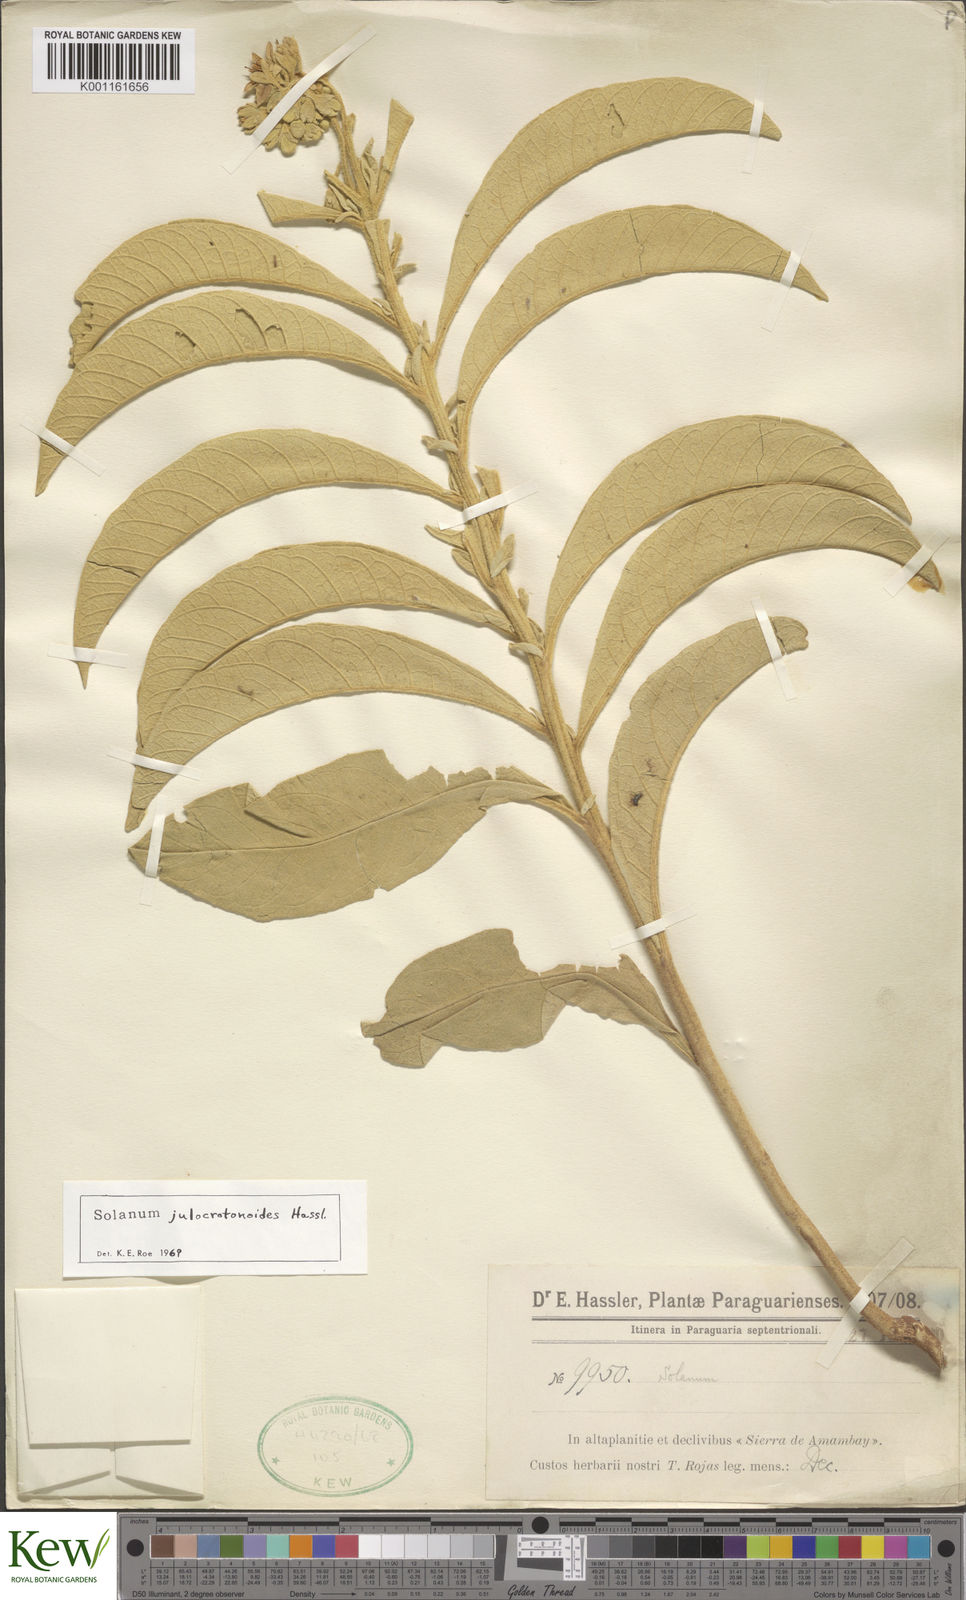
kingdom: Plantae
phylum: Tracheophyta
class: Magnoliopsida
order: Solanales
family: Solanaceae
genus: Solanum
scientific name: Solanum julocrotonoides
